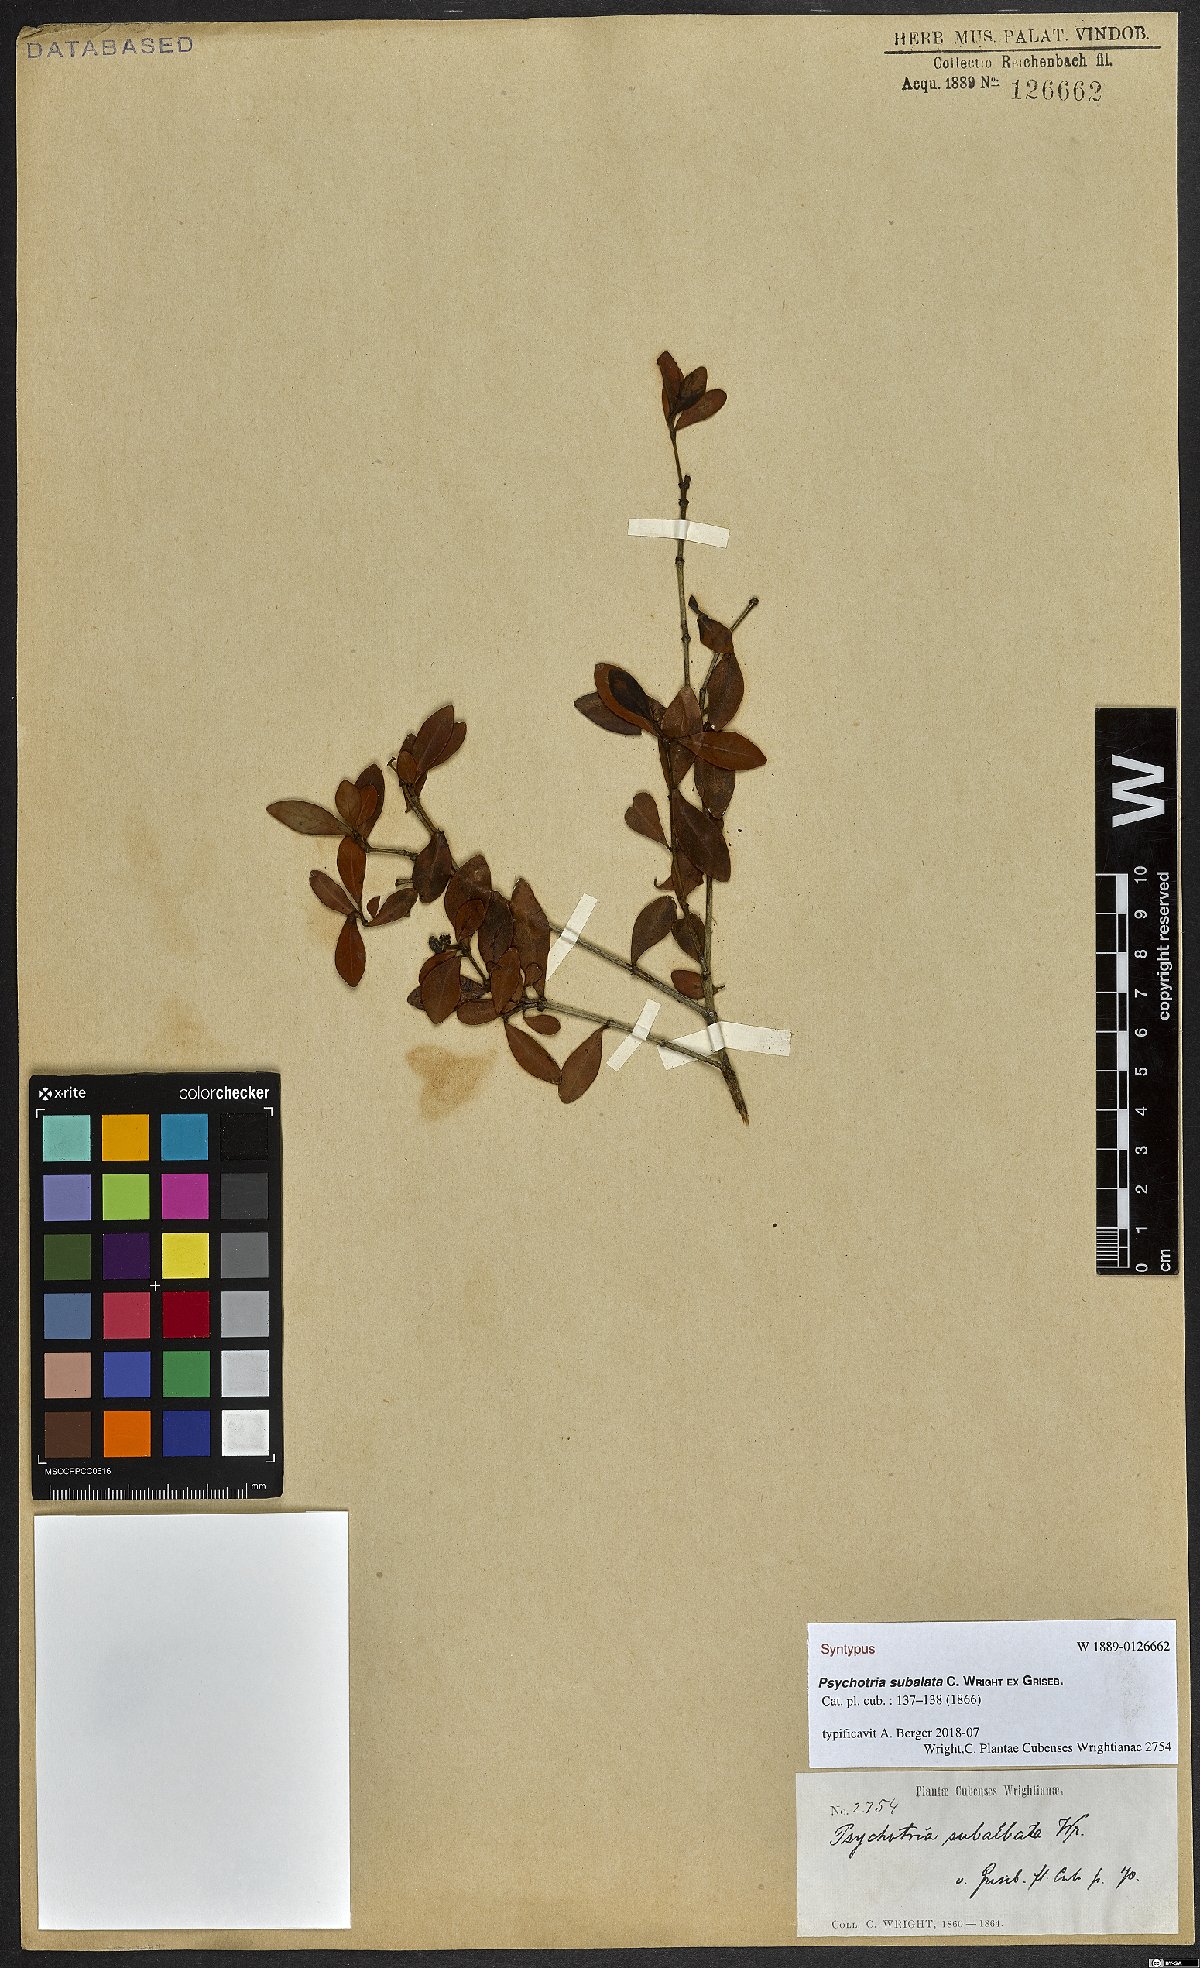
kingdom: Plantae
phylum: Tracheophyta
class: Magnoliopsida
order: Gentianales
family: Rubiaceae
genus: Palicourea
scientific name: Palicourea orientensis
